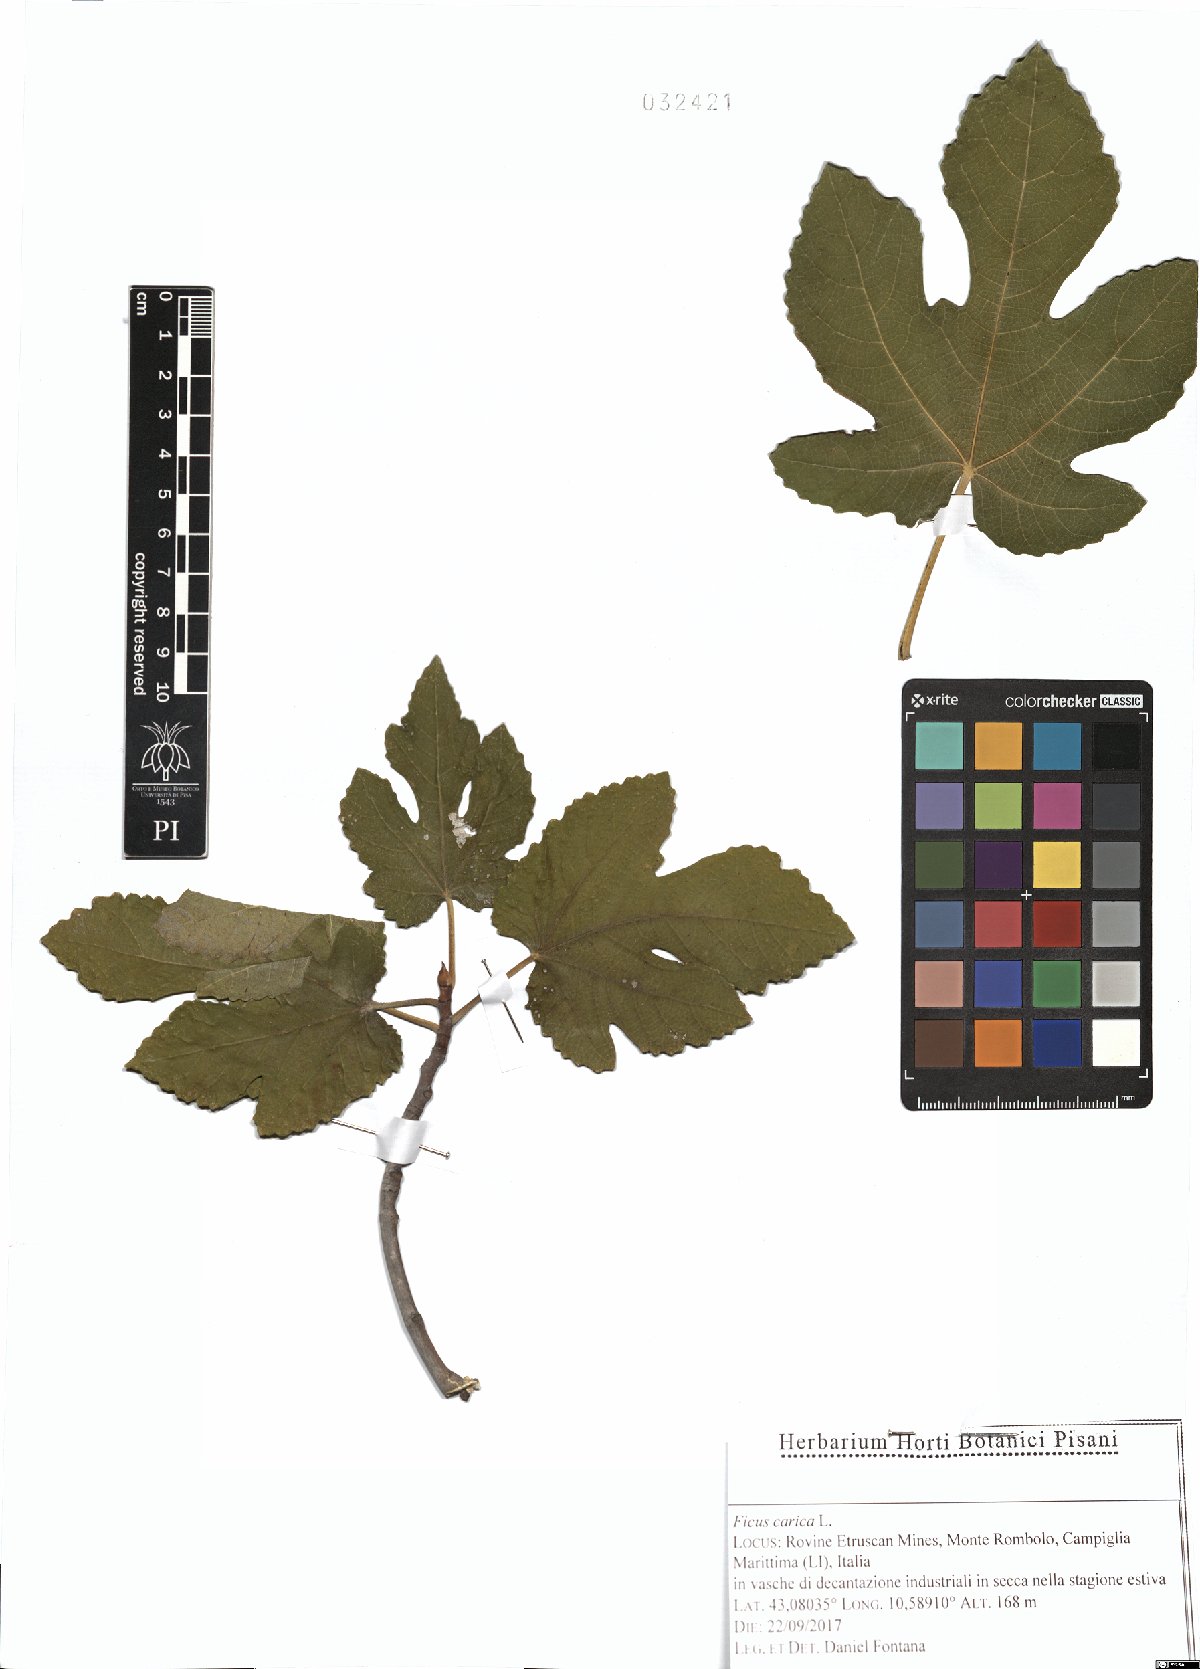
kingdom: Plantae
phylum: Tracheophyta
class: Magnoliopsida
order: Rosales
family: Moraceae
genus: Ficus
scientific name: Ficus carica
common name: Fig
